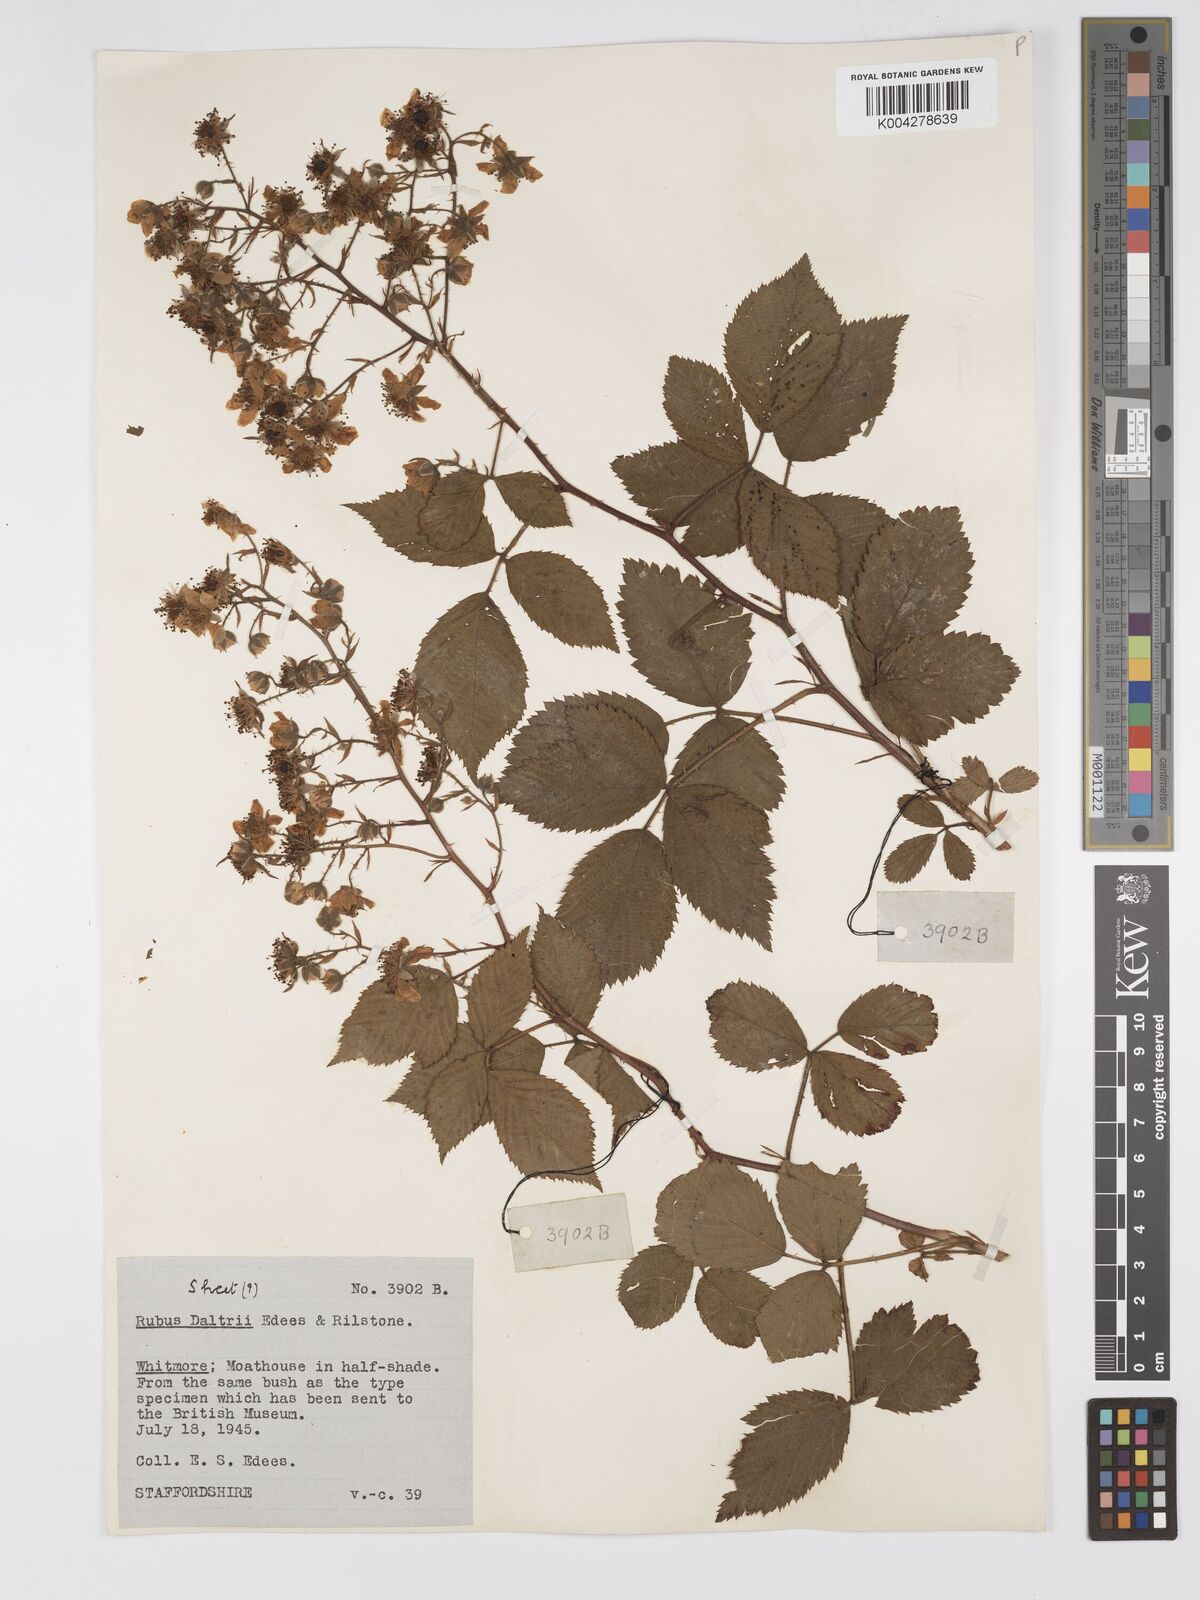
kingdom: Plantae
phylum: Tracheophyta
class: Magnoliopsida
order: Rosales
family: Rosaceae
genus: Rubus
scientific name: Rubus daltrii
